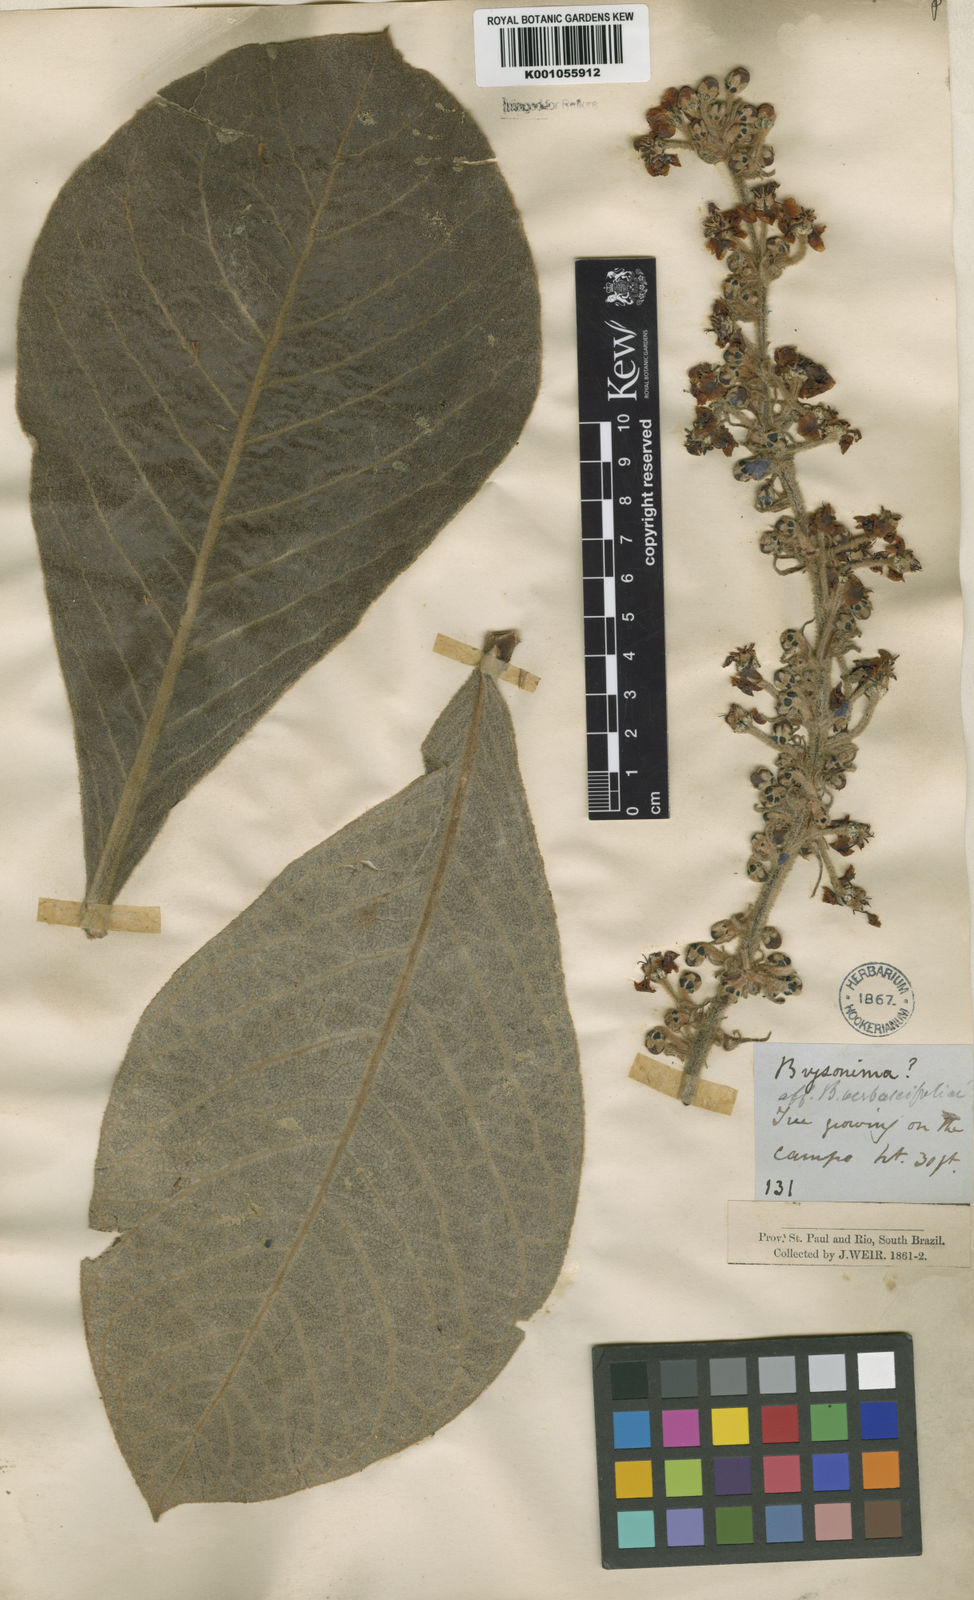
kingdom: Plantae
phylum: Tracheophyta
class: Magnoliopsida
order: Malpighiales
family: Malpighiaceae
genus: Byrsonima
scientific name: Byrsonima verbascifolia
